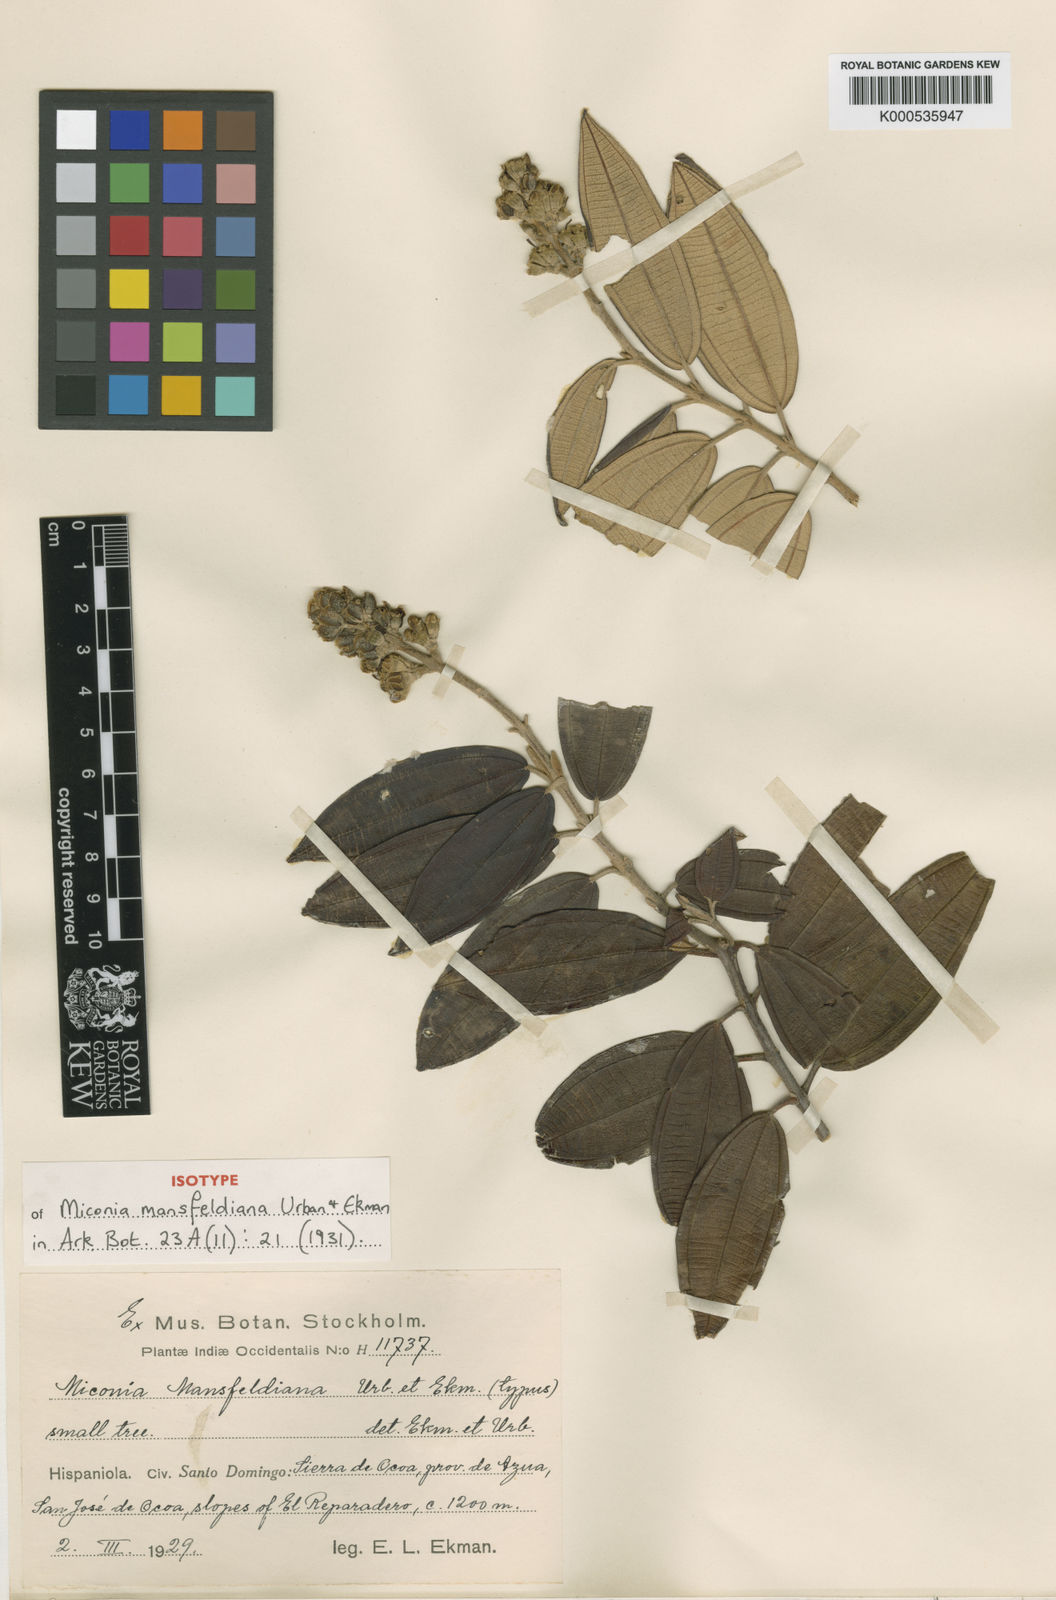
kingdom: Plantae
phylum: Tracheophyta
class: Magnoliopsida
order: Myrtales
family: Melastomataceae
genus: Miconia
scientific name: Miconia mansfeldiana
